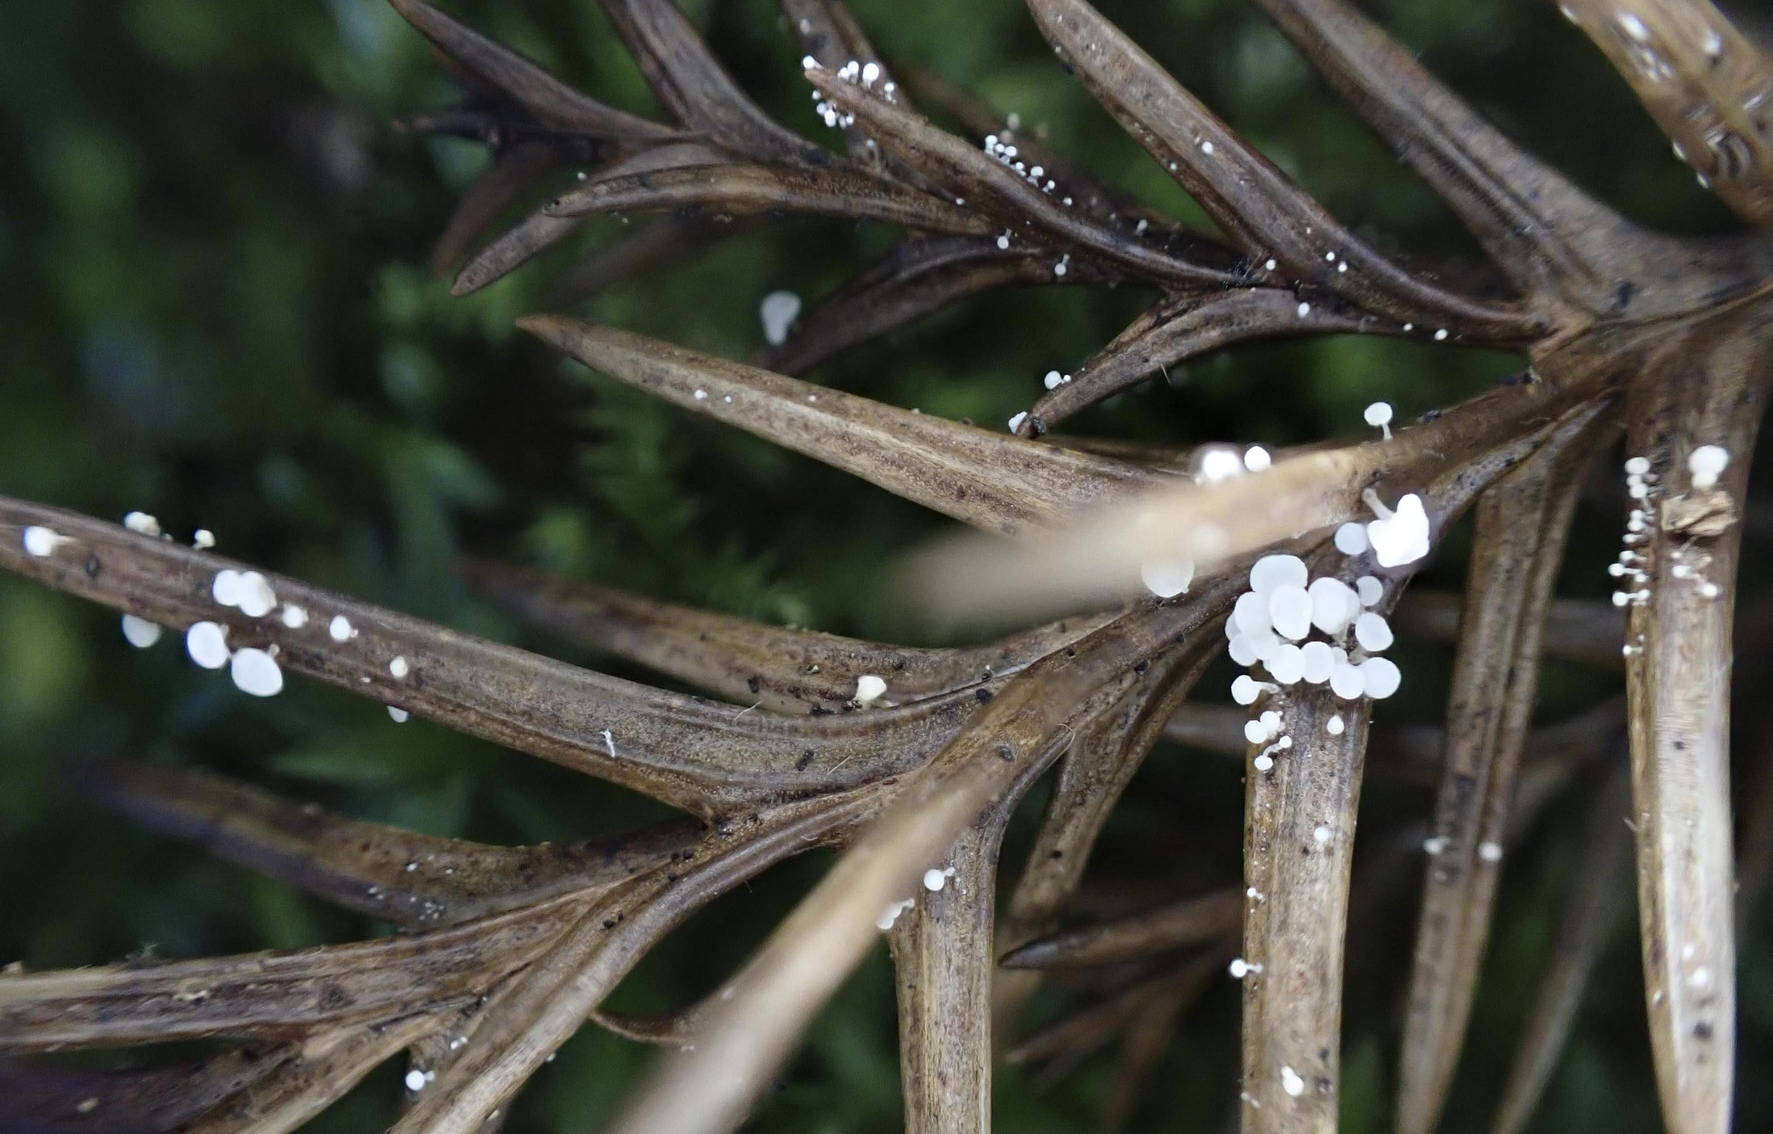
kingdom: Fungi
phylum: Basidiomycota
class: Agaricomycetes
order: Agaricales
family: Physalacriaceae
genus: Physalacria
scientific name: Physalacria cryptomeriae
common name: japangran-boldkølle
